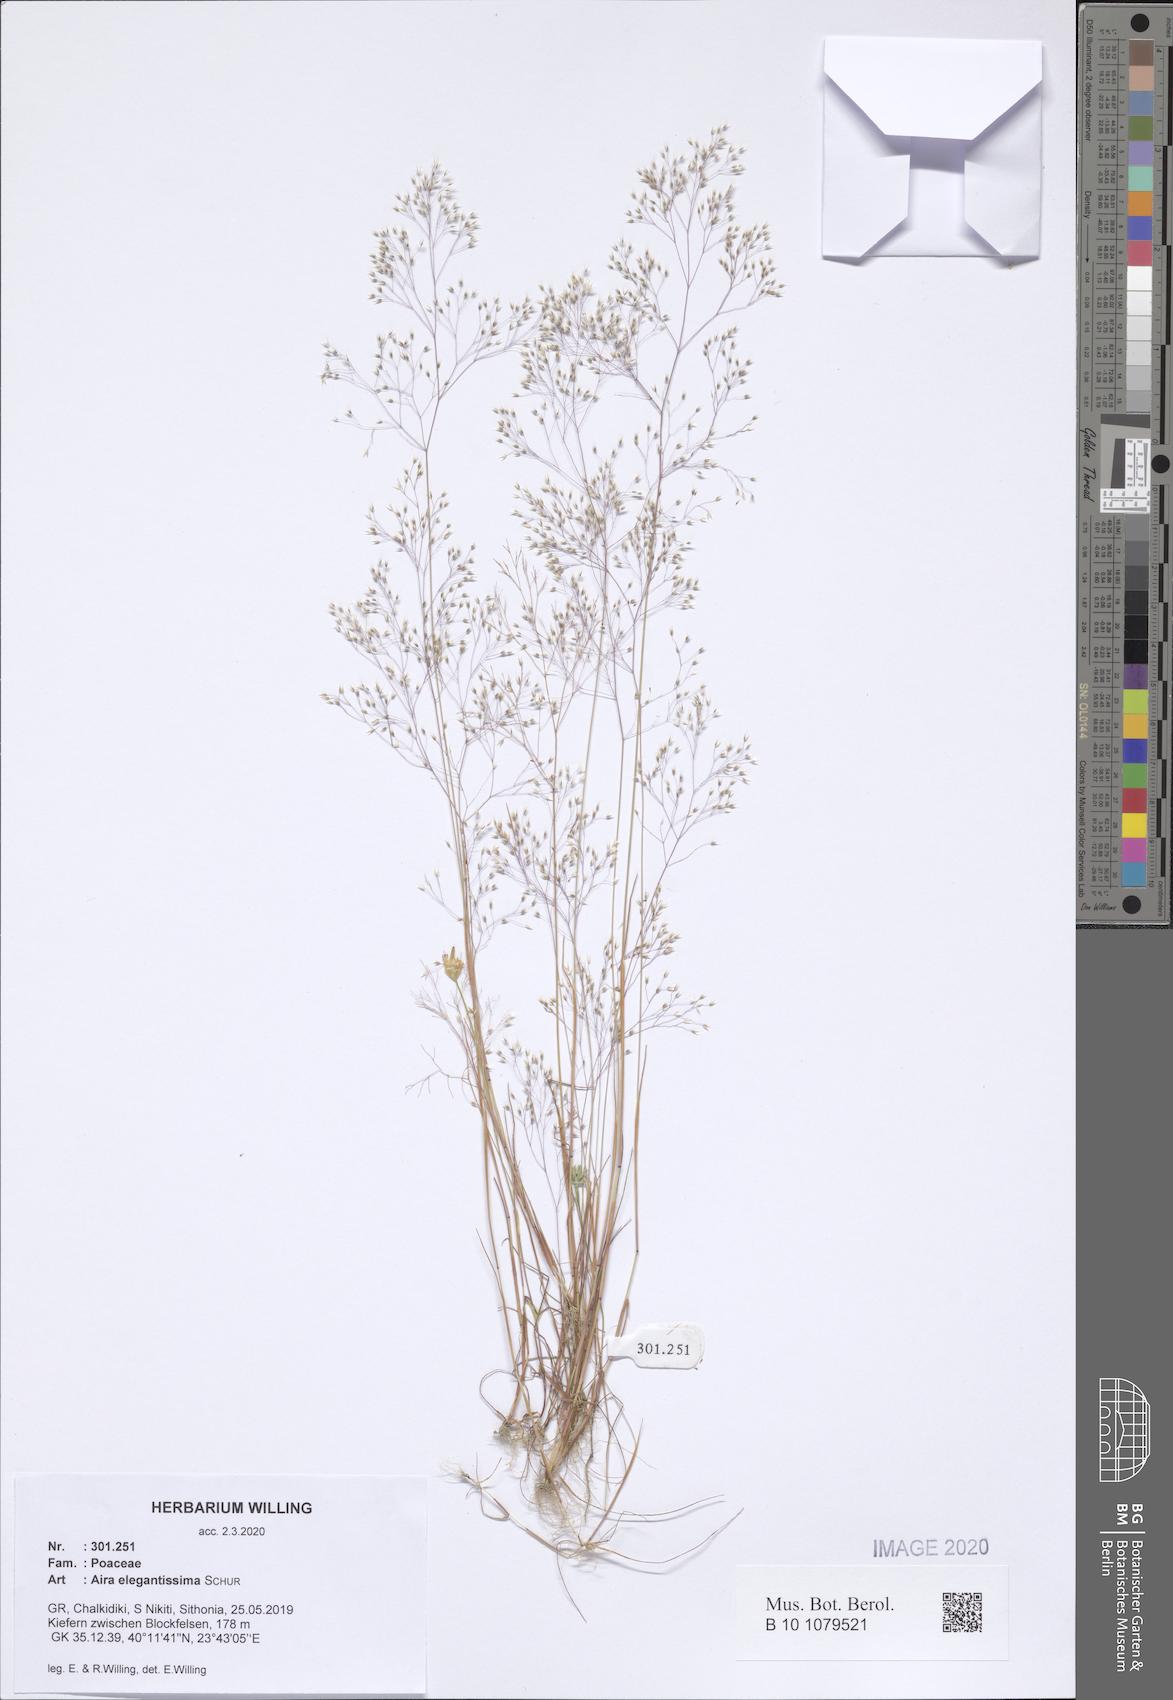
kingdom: Plantae
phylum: Tracheophyta
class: Liliopsida
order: Poales
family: Poaceae
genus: Aira
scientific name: Aira elegans
